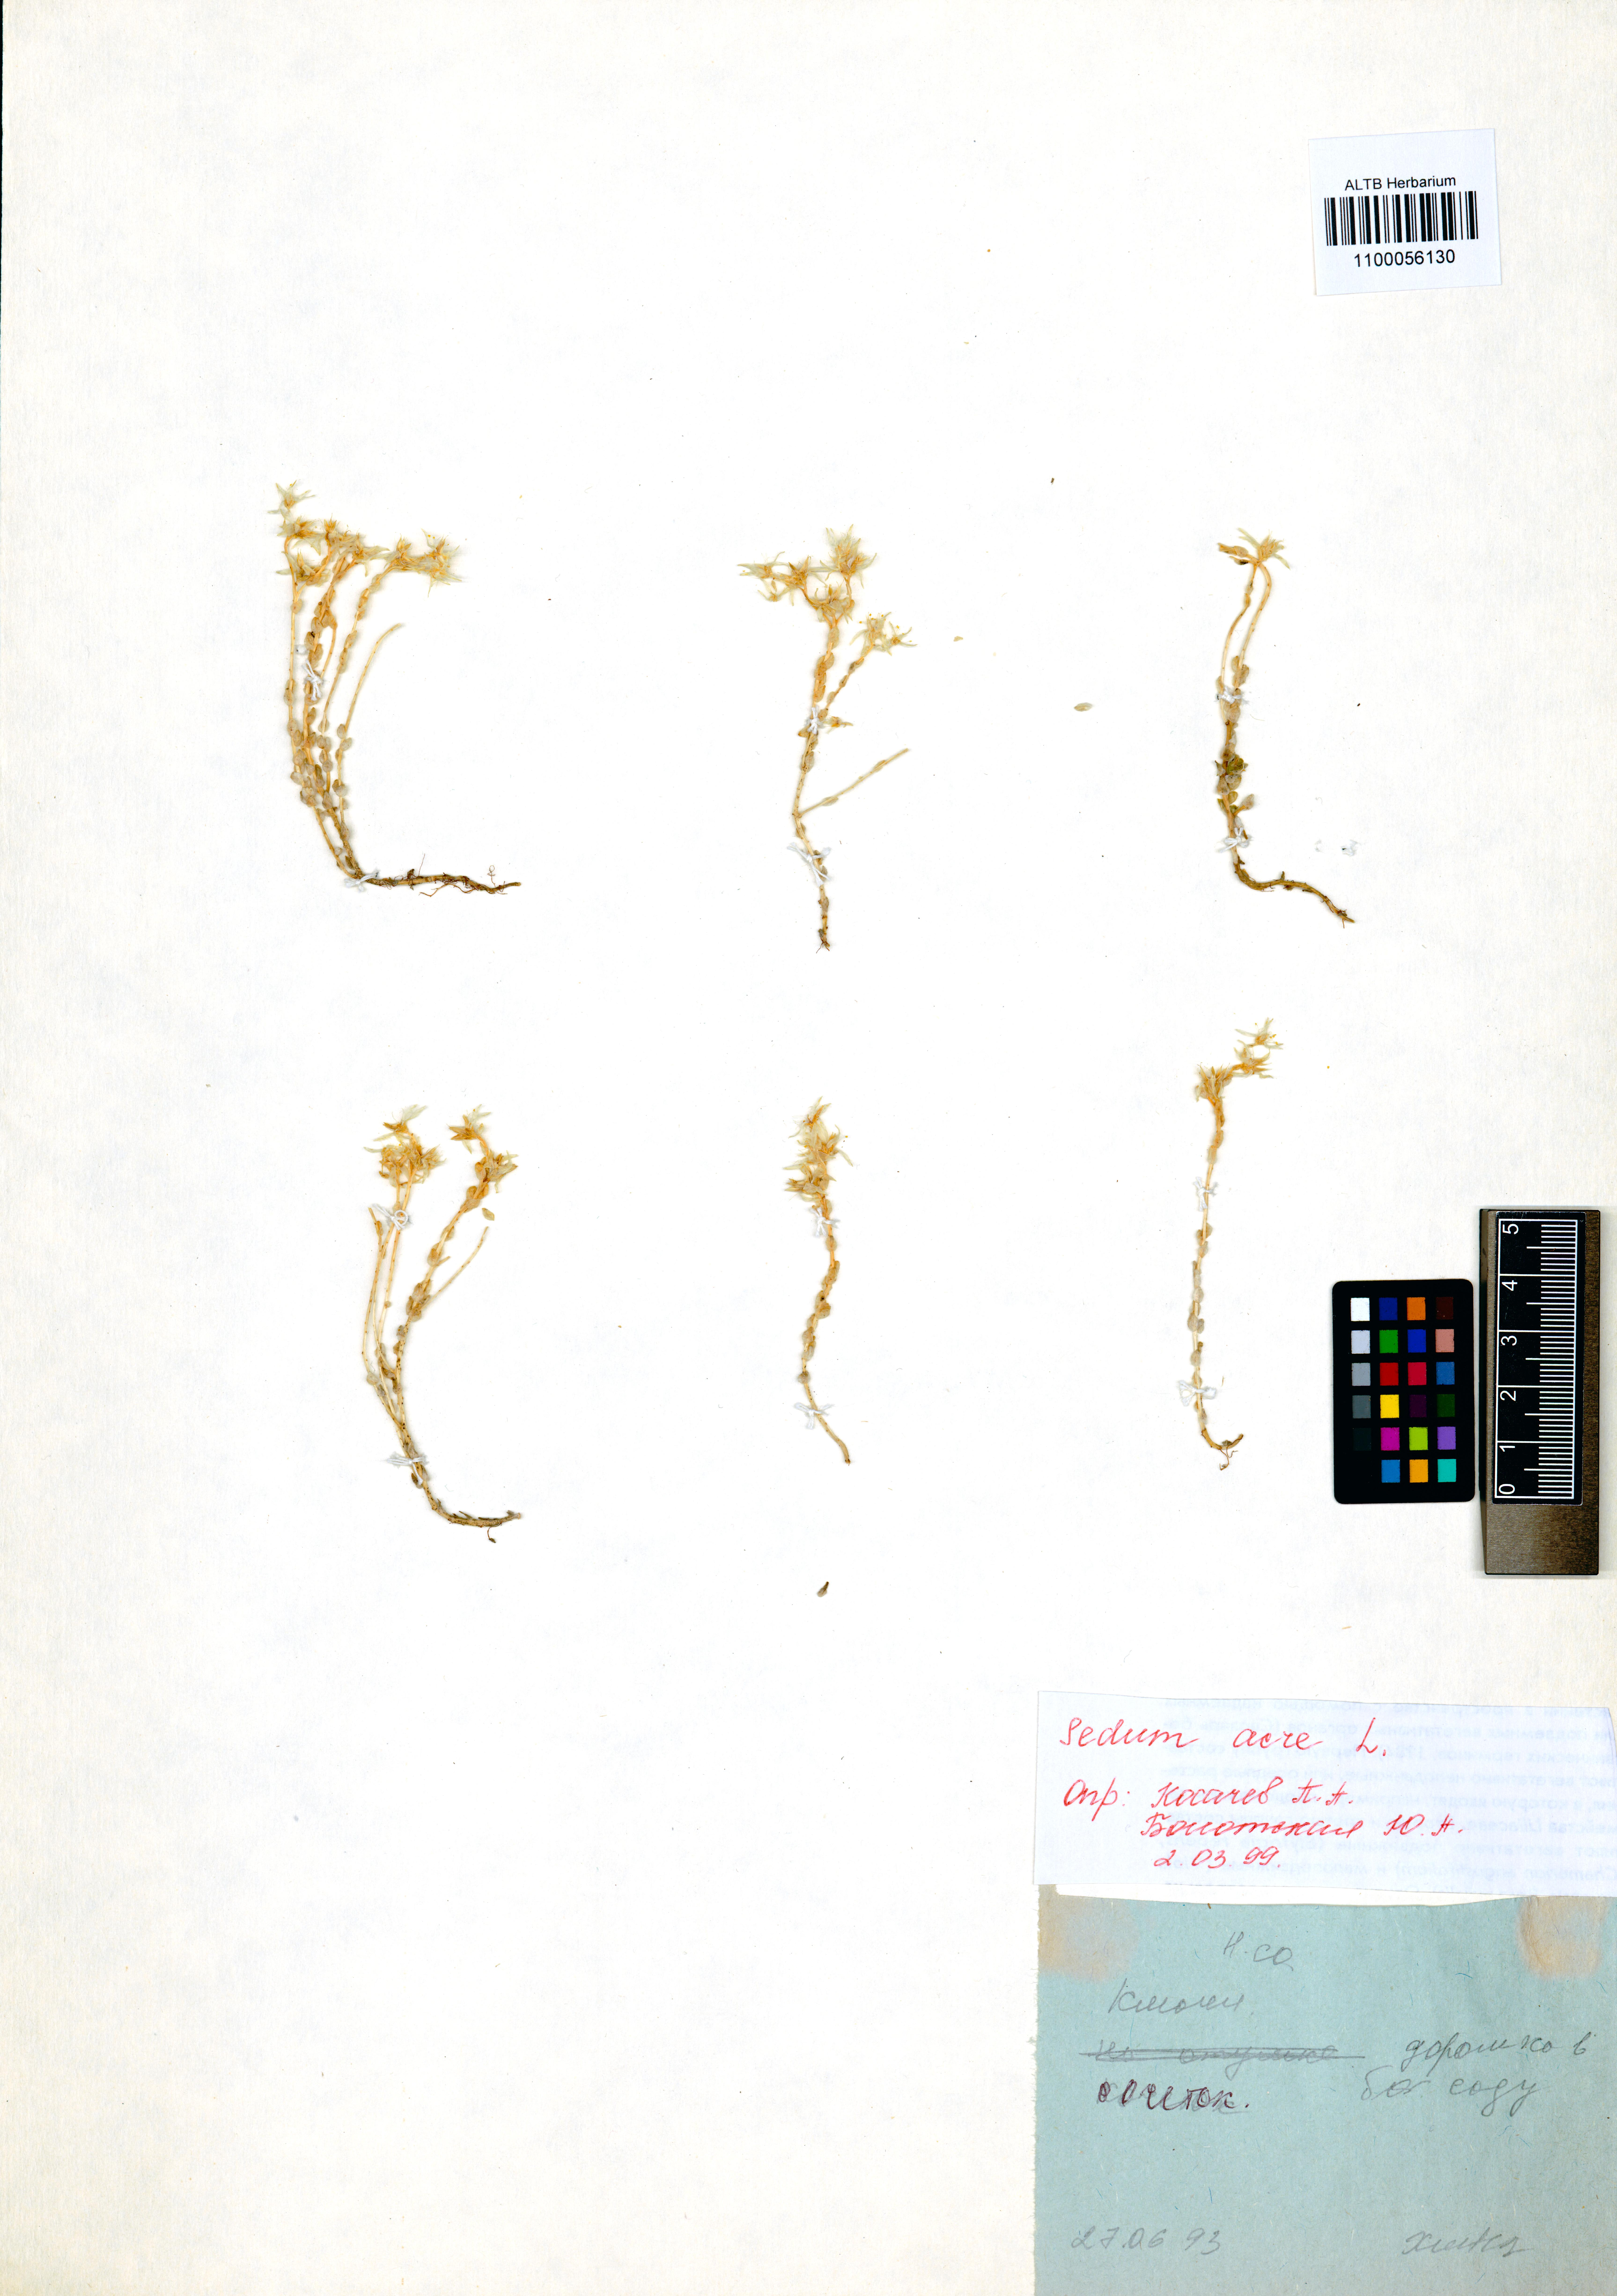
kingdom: Plantae
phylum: Tracheophyta
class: Magnoliopsida
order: Saxifragales
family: Crassulaceae
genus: Sedum
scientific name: Sedum acre
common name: Biting stonecrop
